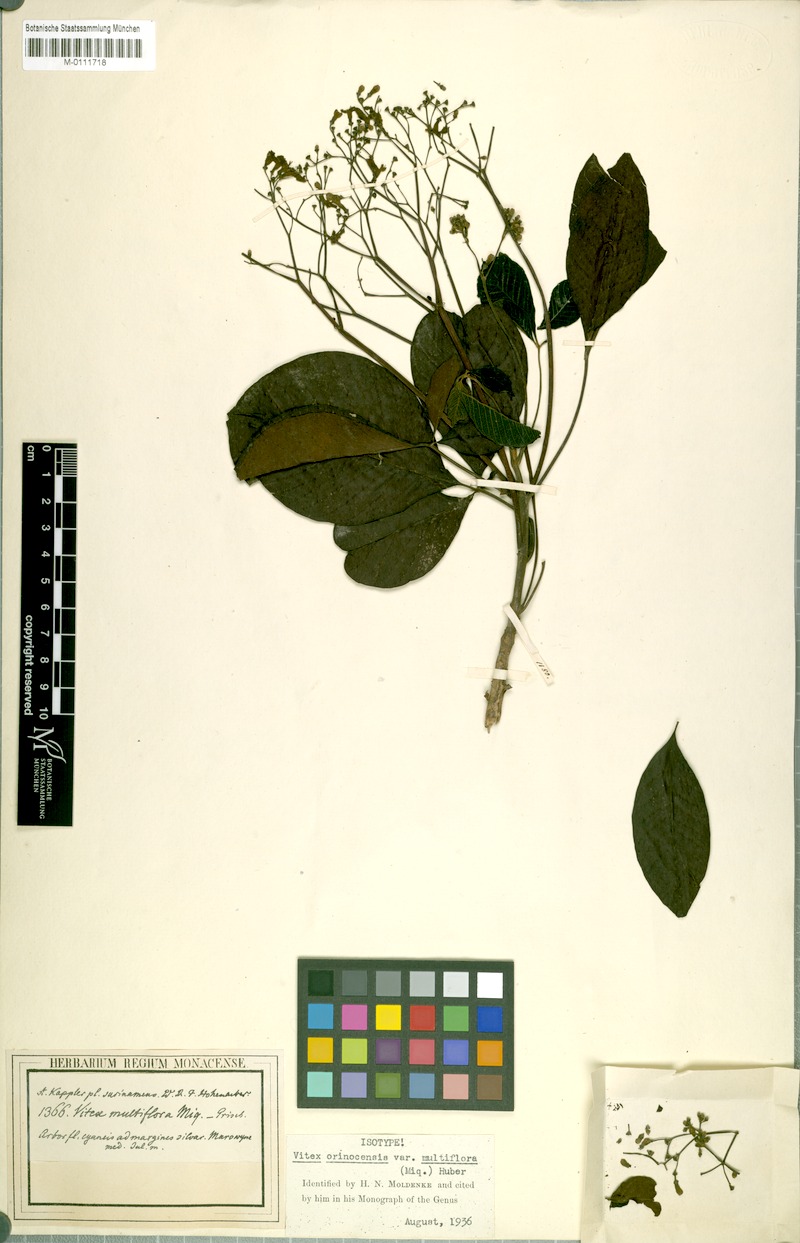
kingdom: Plantae
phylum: Tracheophyta
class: Magnoliopsida
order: Lamiales
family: Lamiaceae
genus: Vitex
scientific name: Vitex orinocensis
